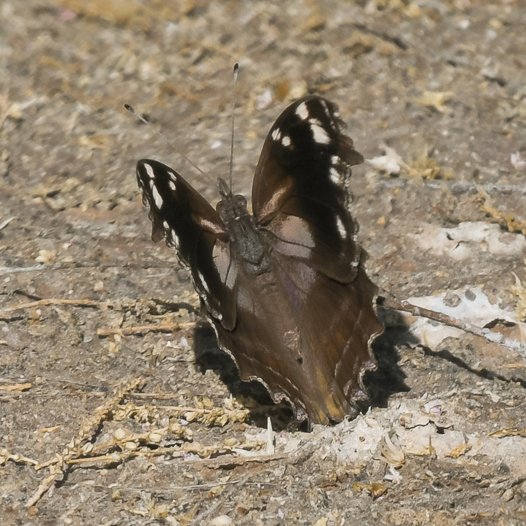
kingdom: Animalia
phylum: Arthropoda
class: Insecta
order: Lepidoptera
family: Nymphalidae
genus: Myscelia
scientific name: Myscelia cyananthe
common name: Blackened Bluewing
